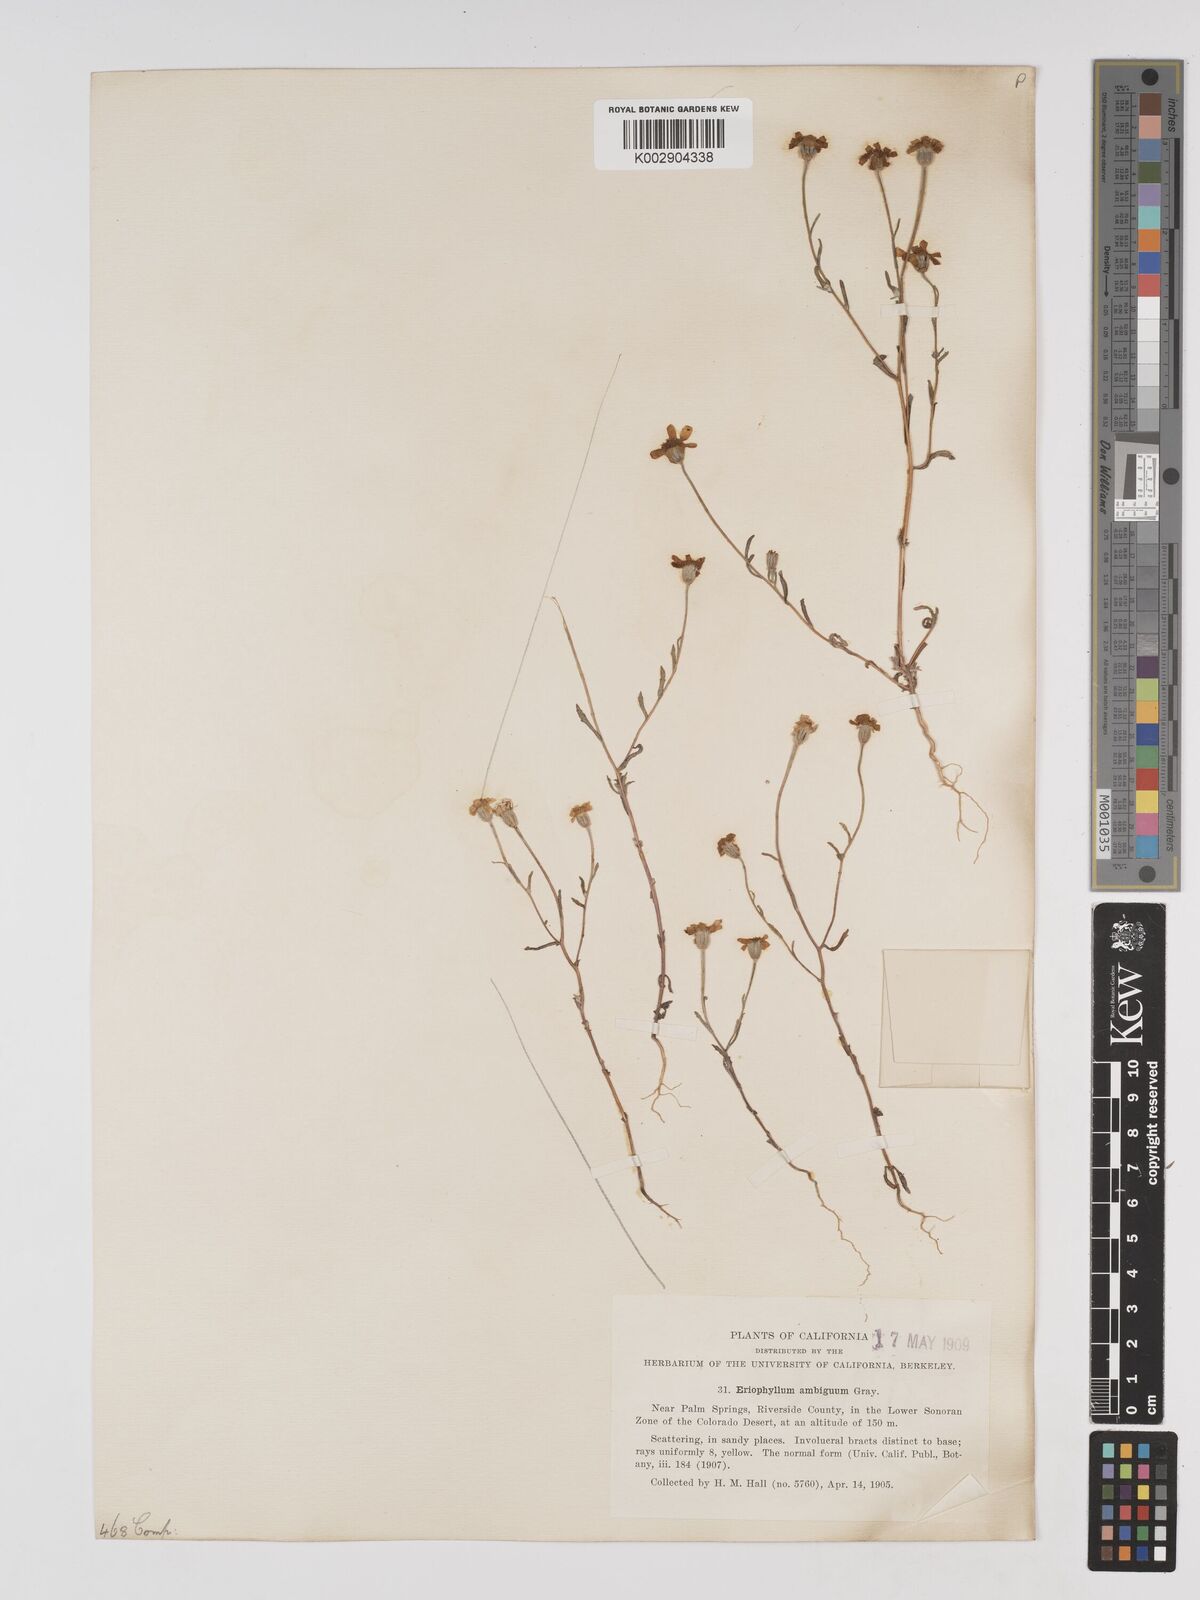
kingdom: Plantae
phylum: Tracheophyta
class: Magnoliopsida
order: Asterales
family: Asteraceae
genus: Eriophyllum
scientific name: Eriophyllum ambiguum
